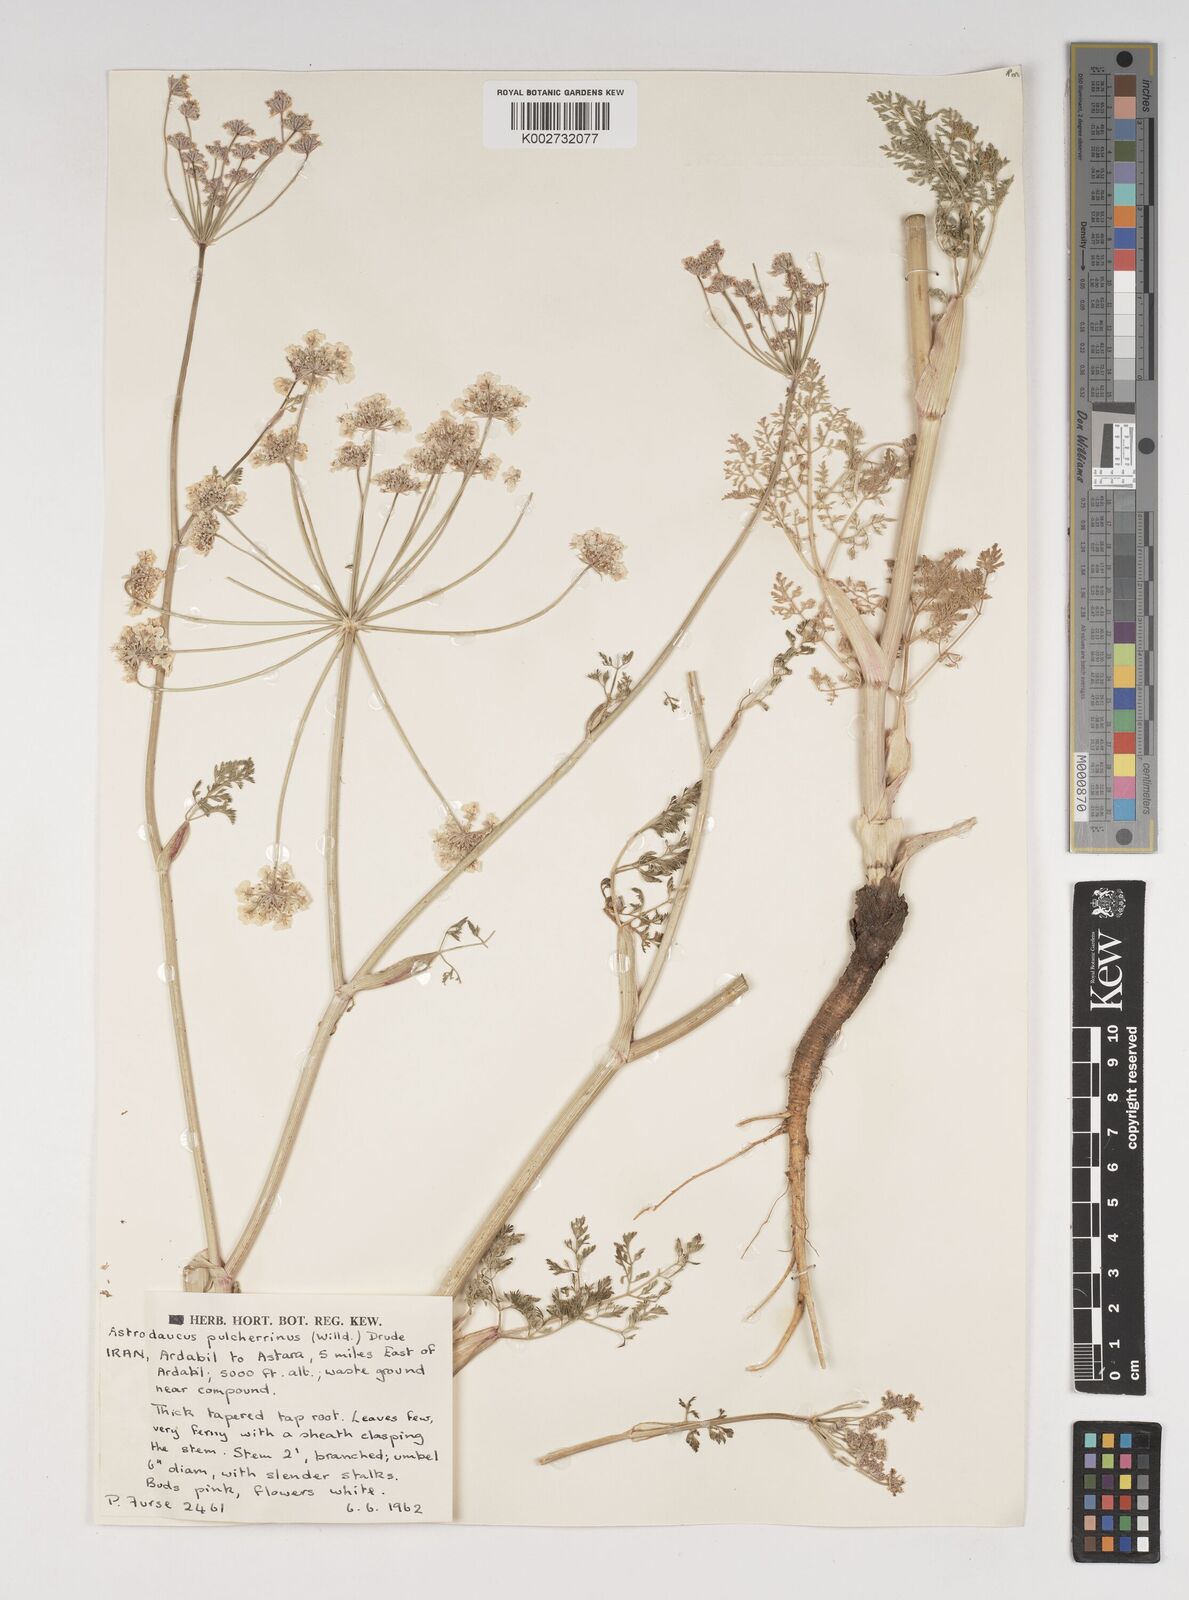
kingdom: Plantae
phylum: Tracheophyta
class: Magnoliopsida
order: Apiales
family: Apiaceae
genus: Astrodaucus
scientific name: Astrodaucus
